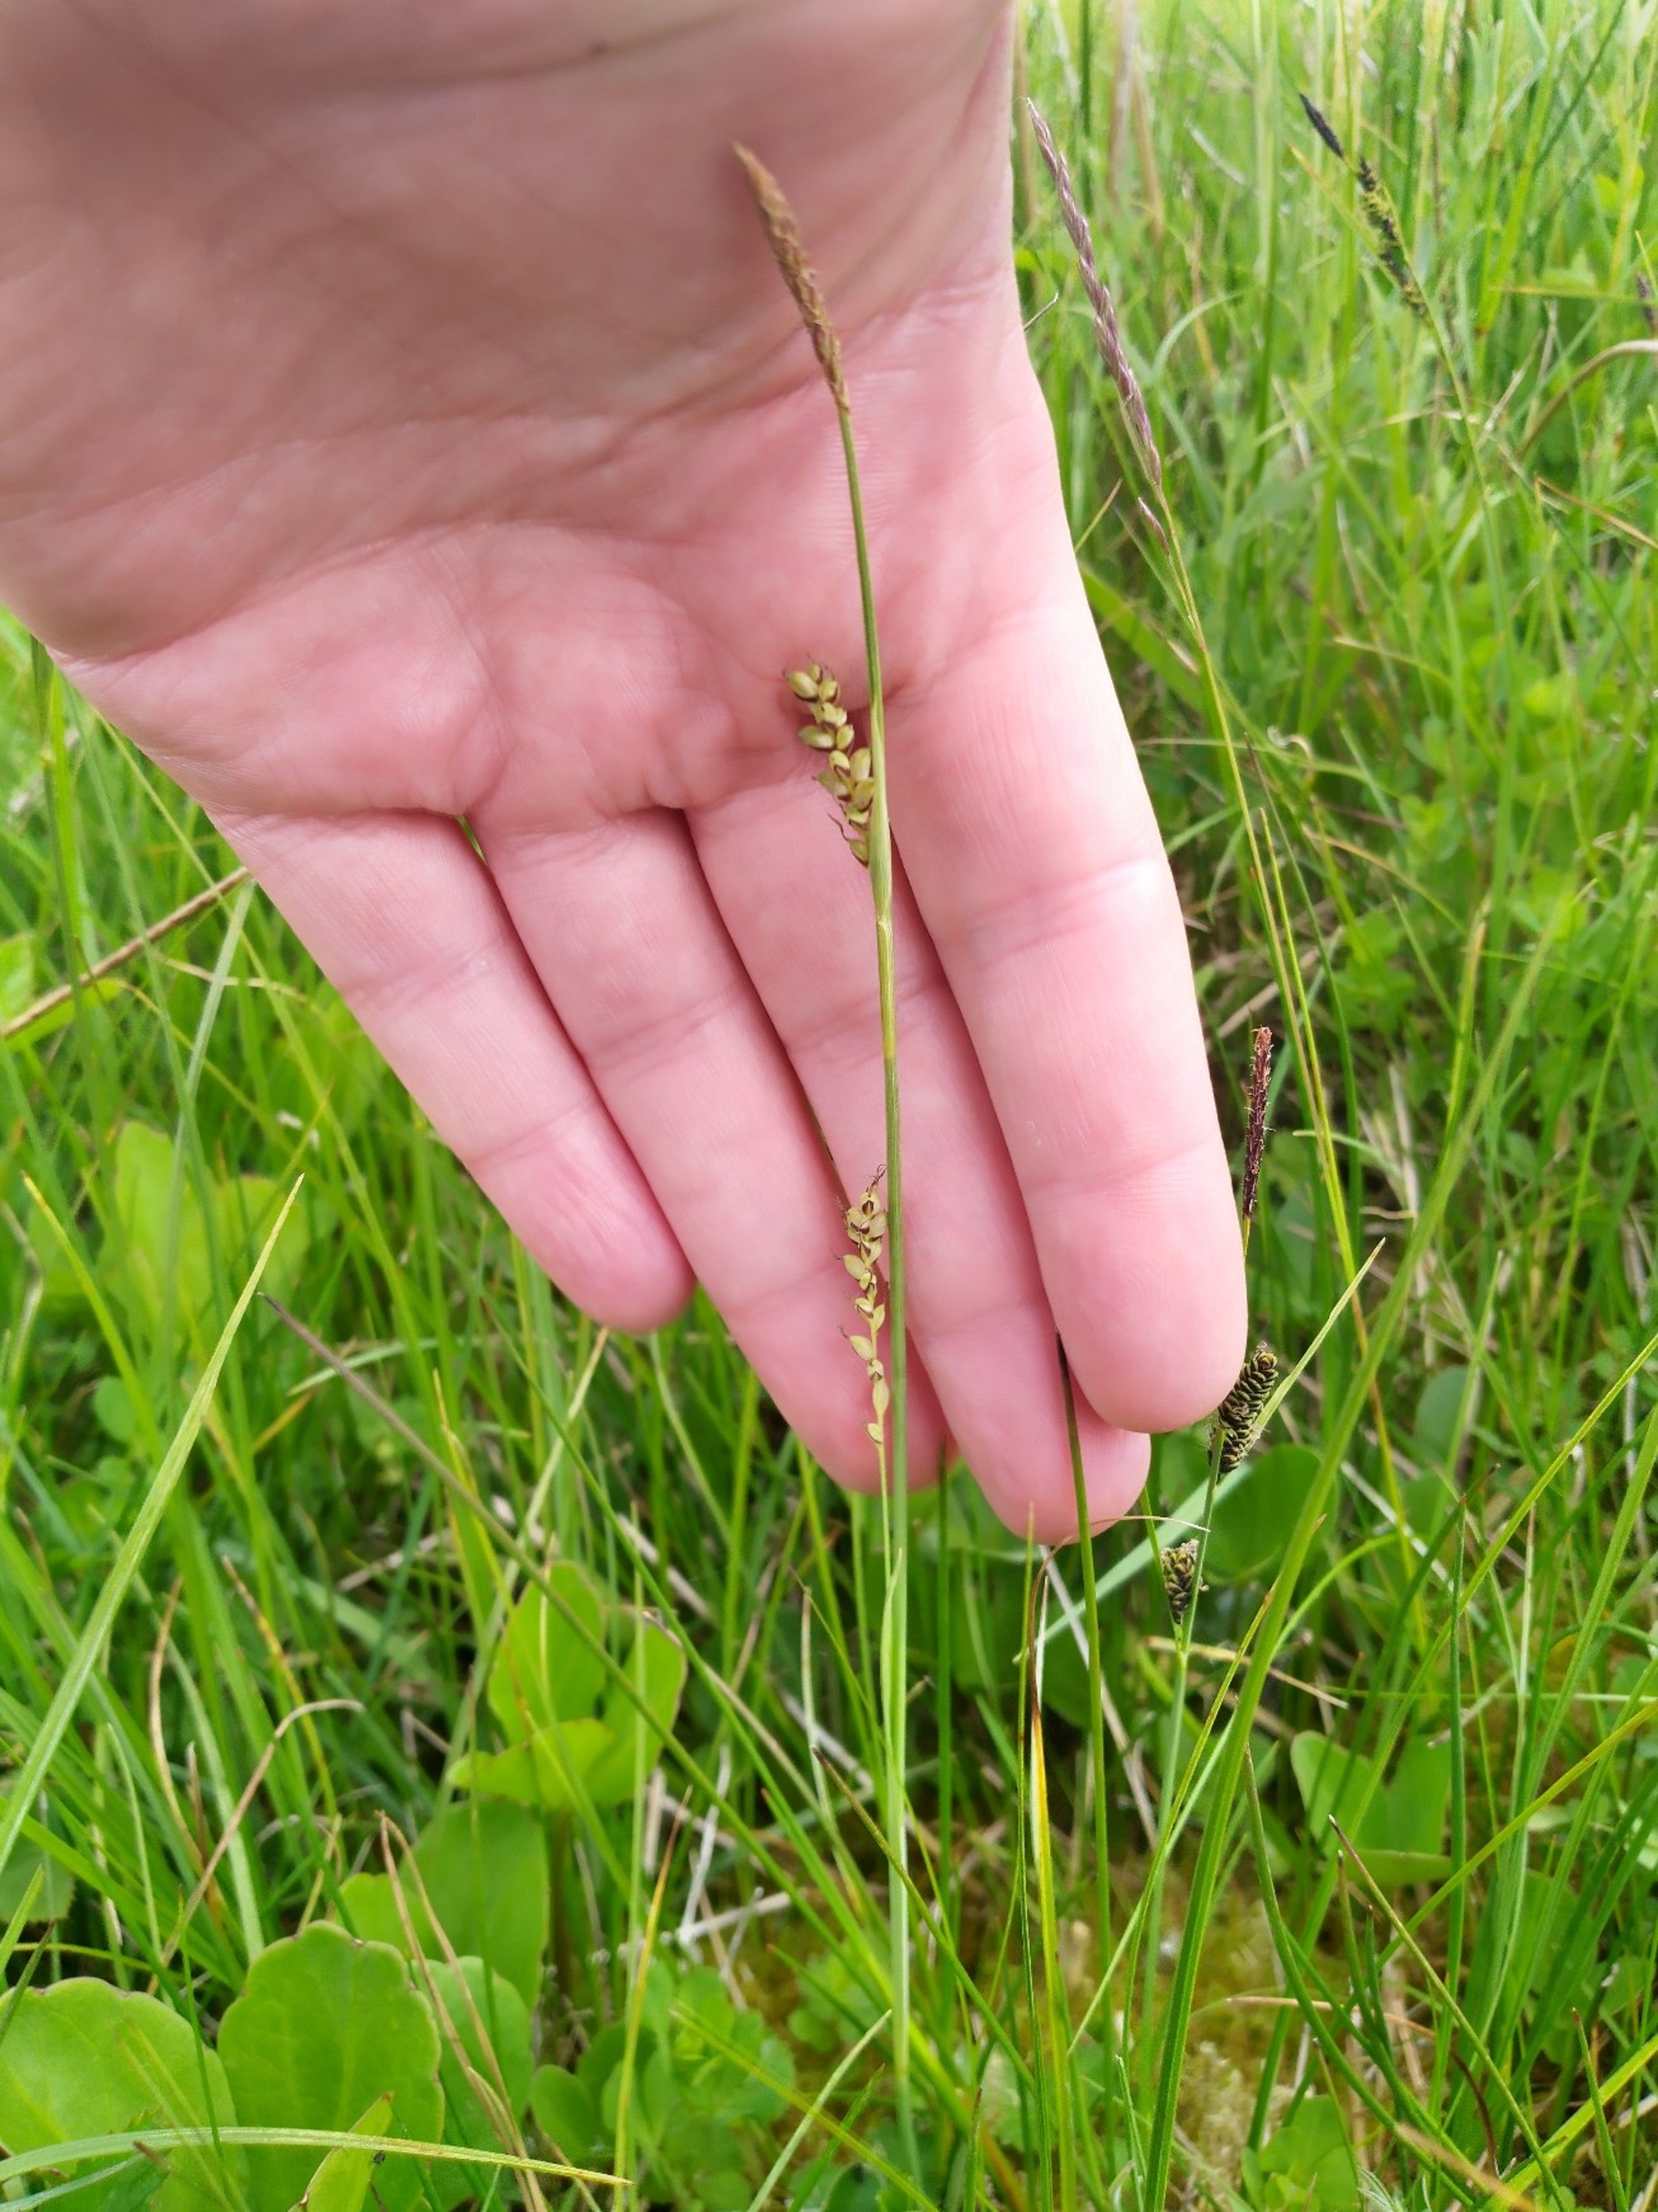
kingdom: Plantae
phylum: Tracheophyta
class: Liliopsida
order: Poales
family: Cyperaceae
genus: Carex
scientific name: Carex panicea
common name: Hirse-star
